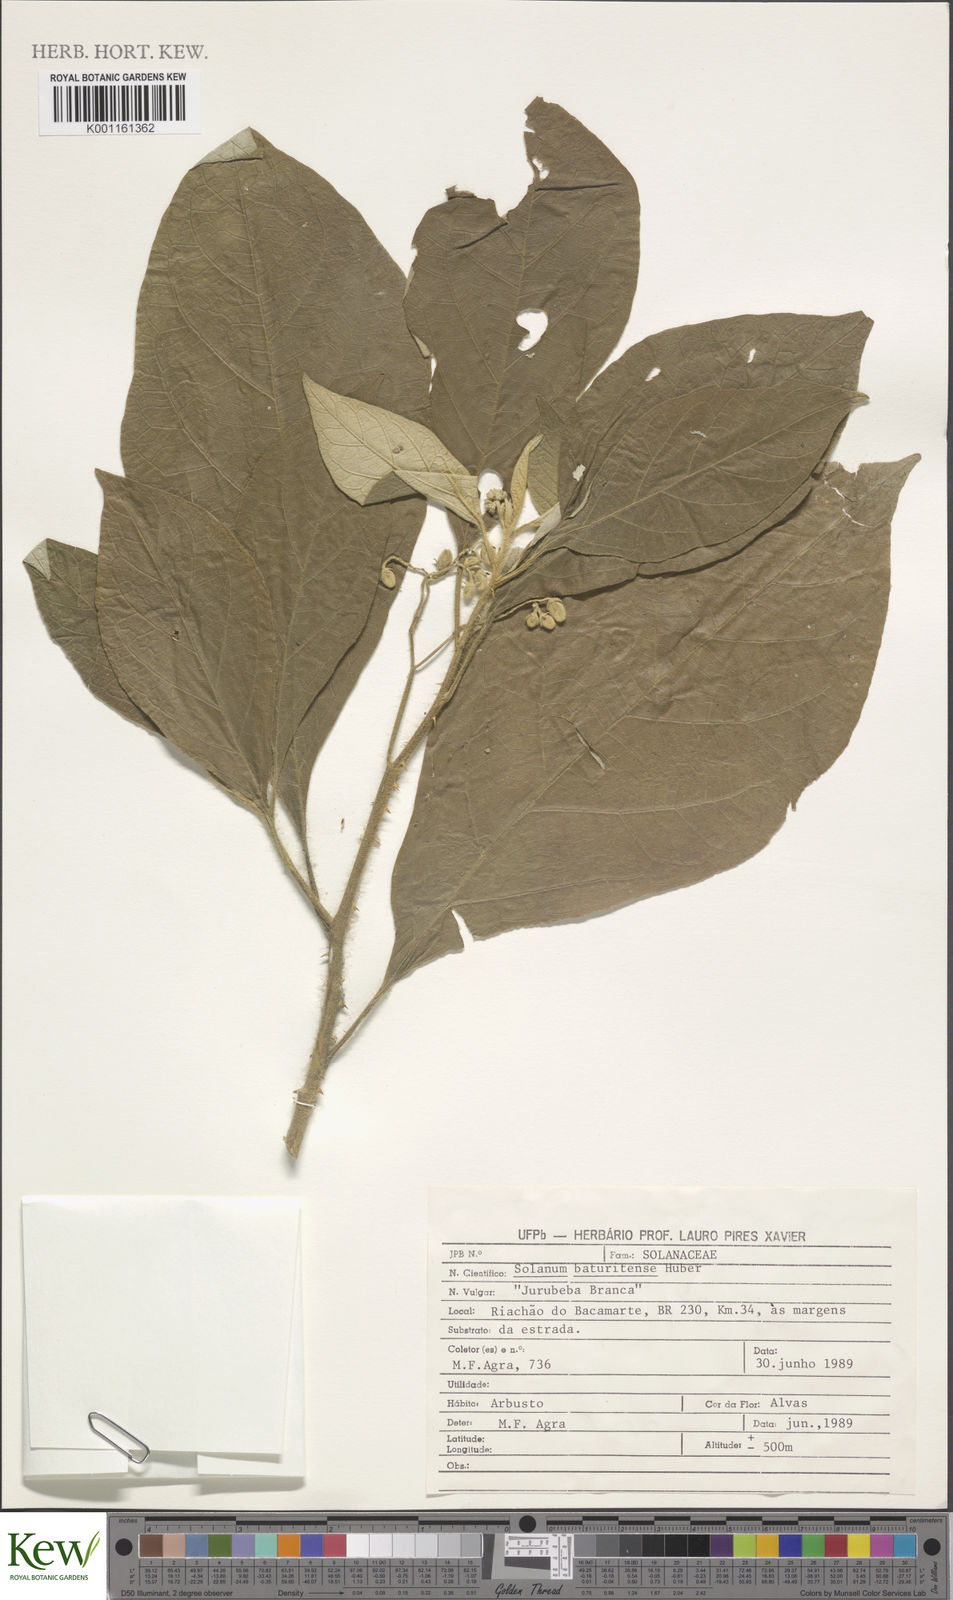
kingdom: Plantae
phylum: Tracheophyta
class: Magnoliopsida
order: Solanales
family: Solanaceae
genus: Solanum
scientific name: Solanum rhytidoandrum
